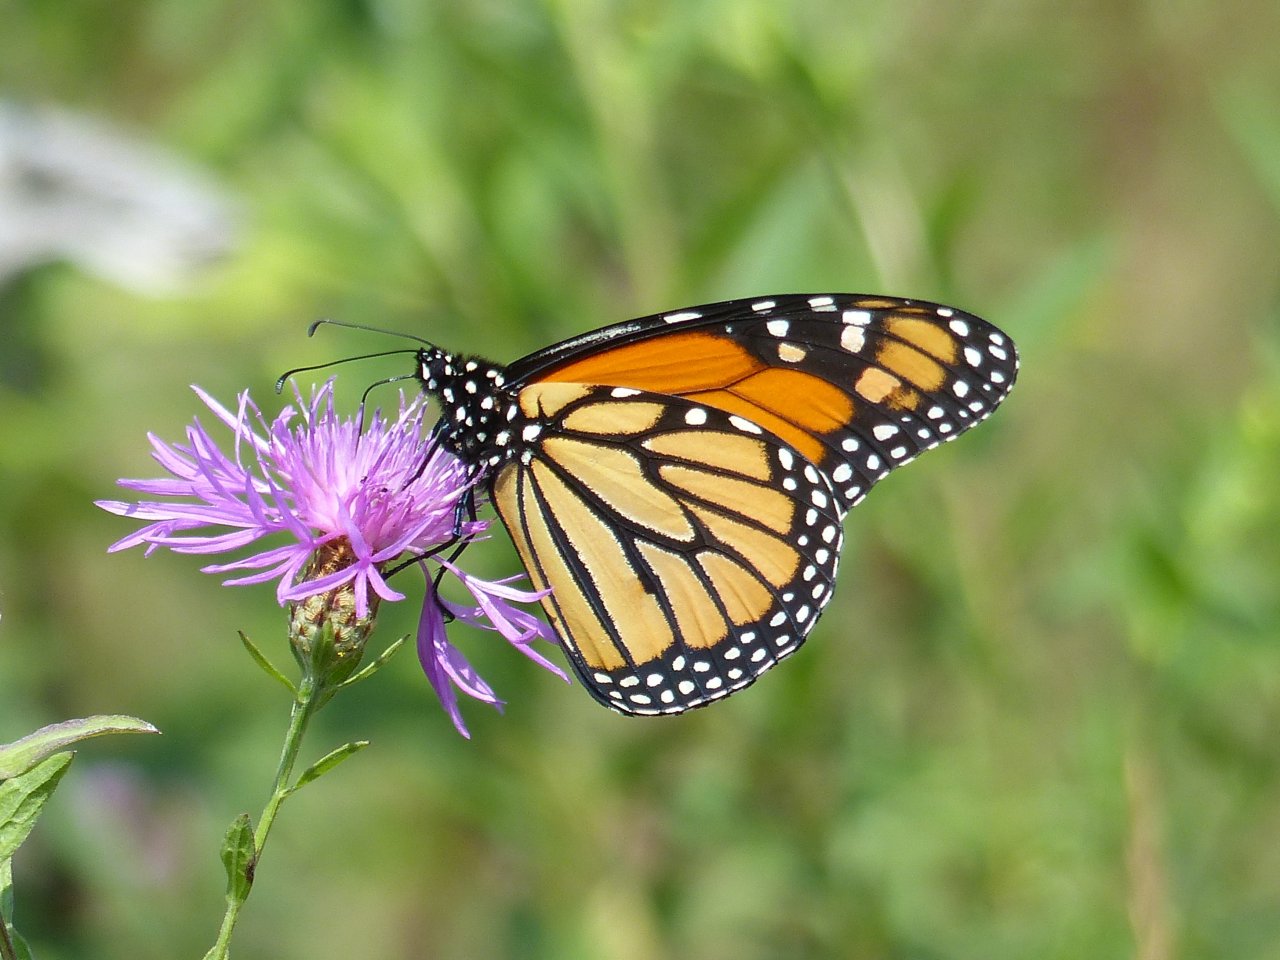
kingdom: Animalia
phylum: Arthropoda
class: Insecta
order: Lepidoptera
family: Nymphalidae
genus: Danaus
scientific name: Danaus plexippus
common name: Monarch
